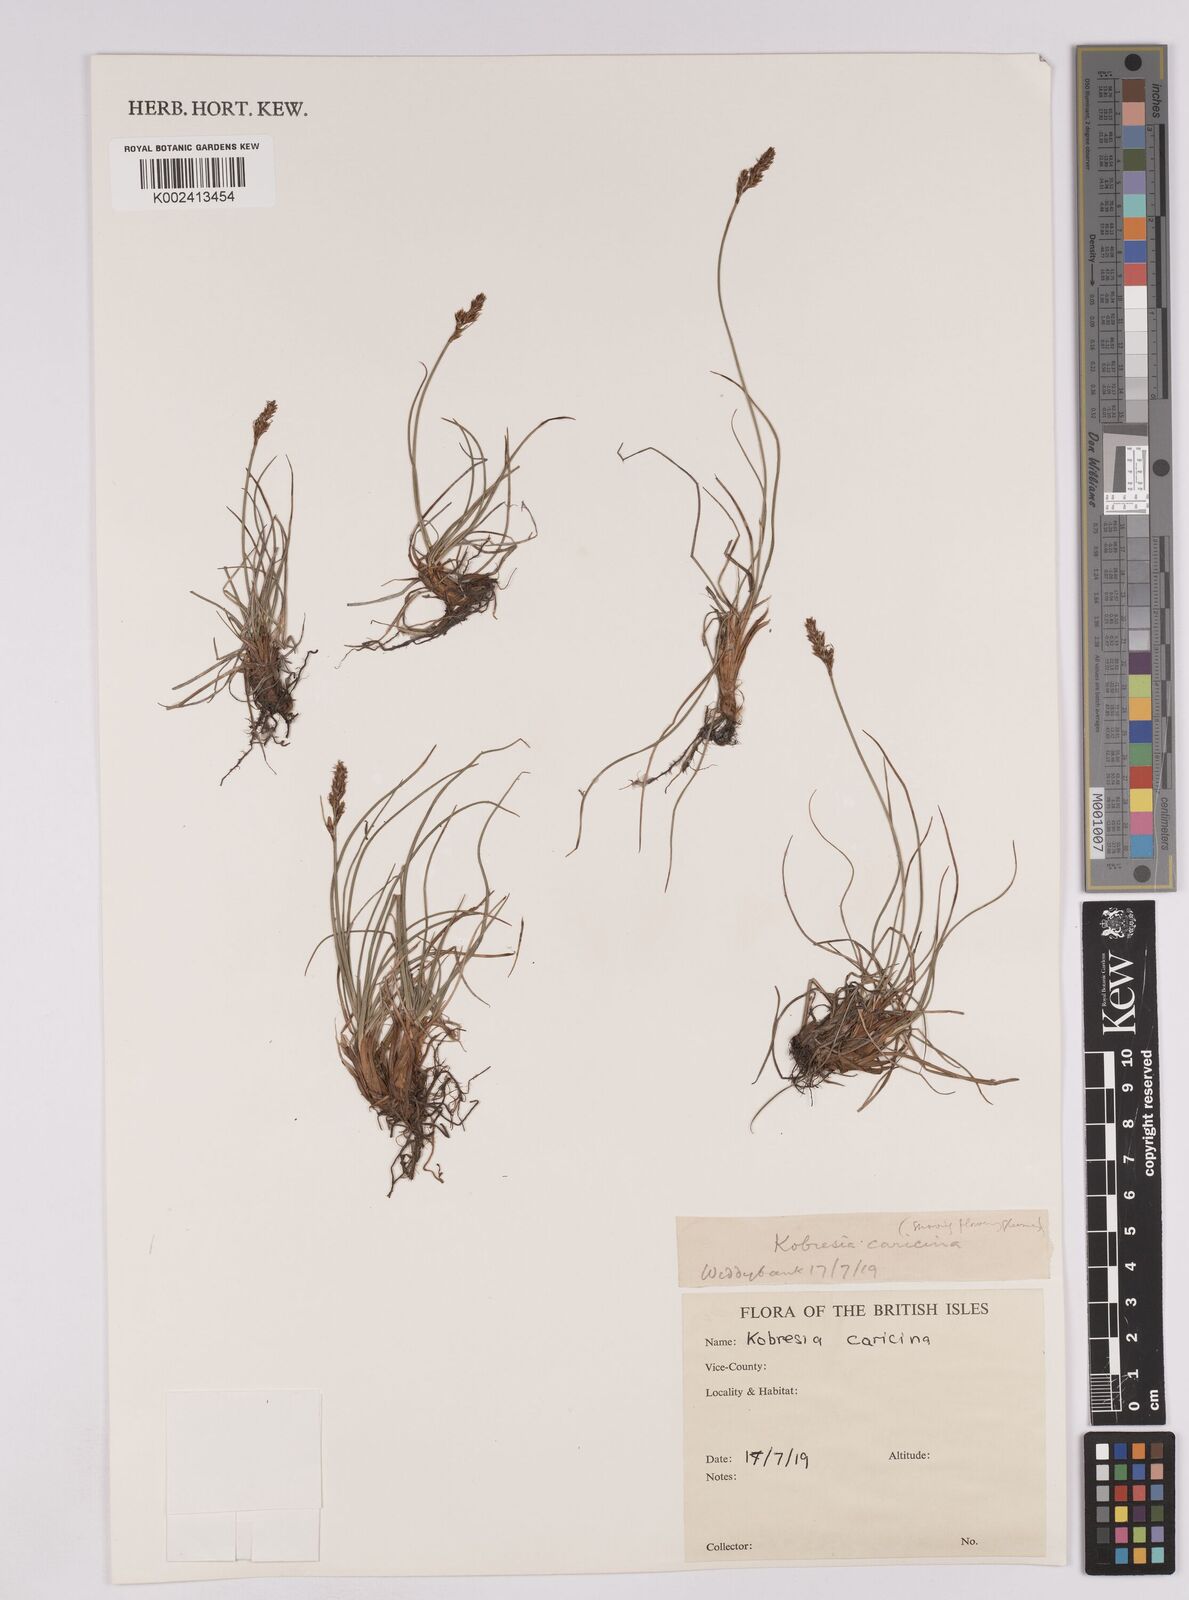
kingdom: Plantae
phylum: Tracheophyta
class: Liliopsida
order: Poales
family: Cyperaceae
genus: Carex
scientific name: Carex simpliciuscula
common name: Simple bog sedge
